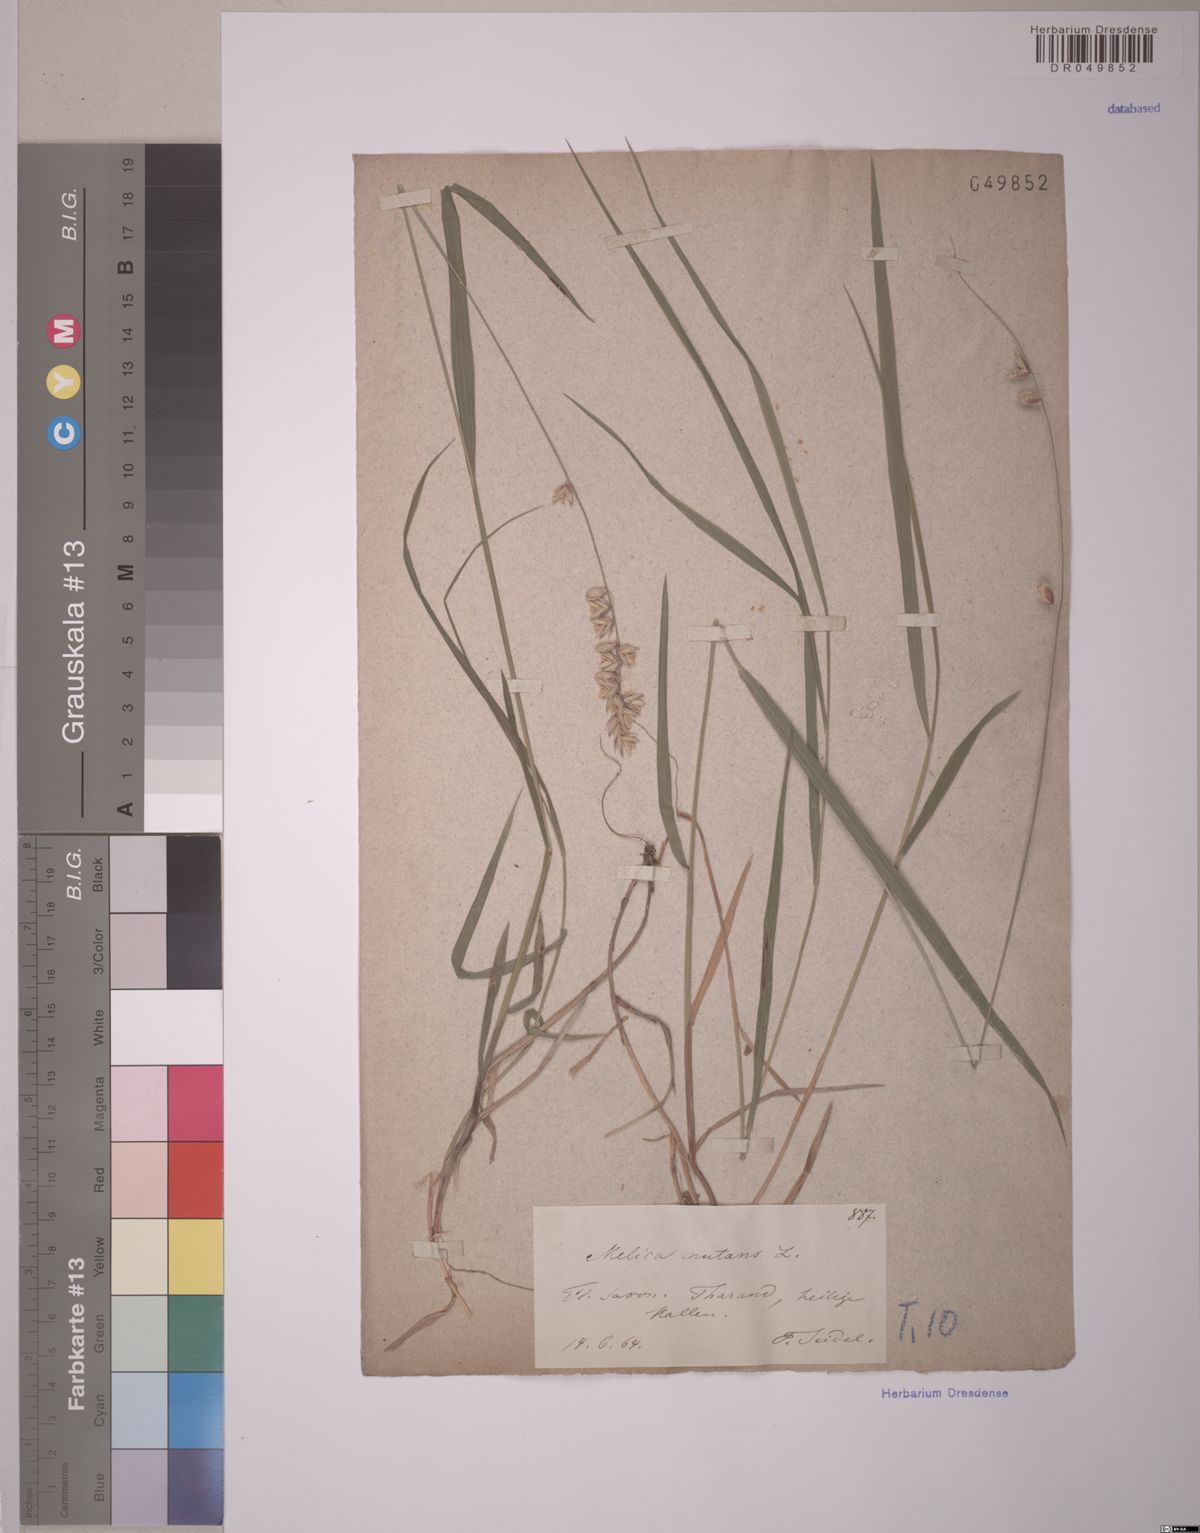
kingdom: Plantae
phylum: Tracheophyta
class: Liliopsida
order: Poales
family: Poaceae
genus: Melica
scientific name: Melica nutans
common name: Mountain melick
